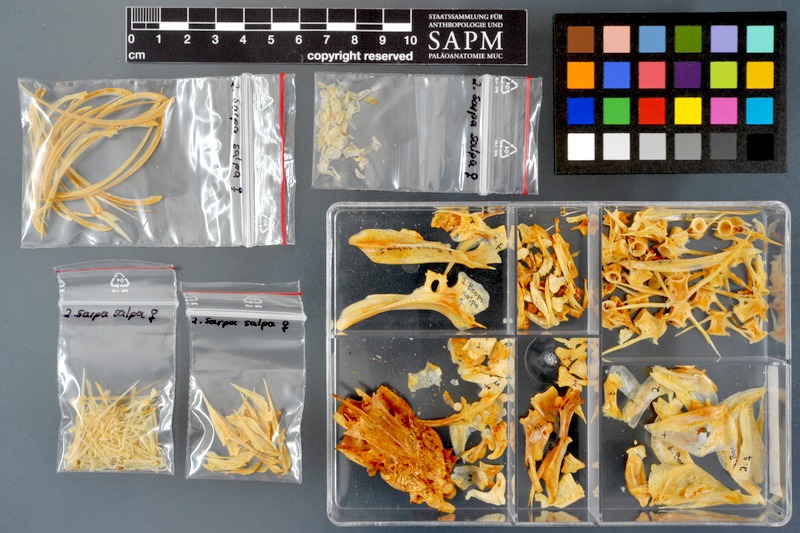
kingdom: Animalia
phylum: Chordata
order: Perciformes
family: Sparidae
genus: Sarpa
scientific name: Sarpa salpa
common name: Salema
